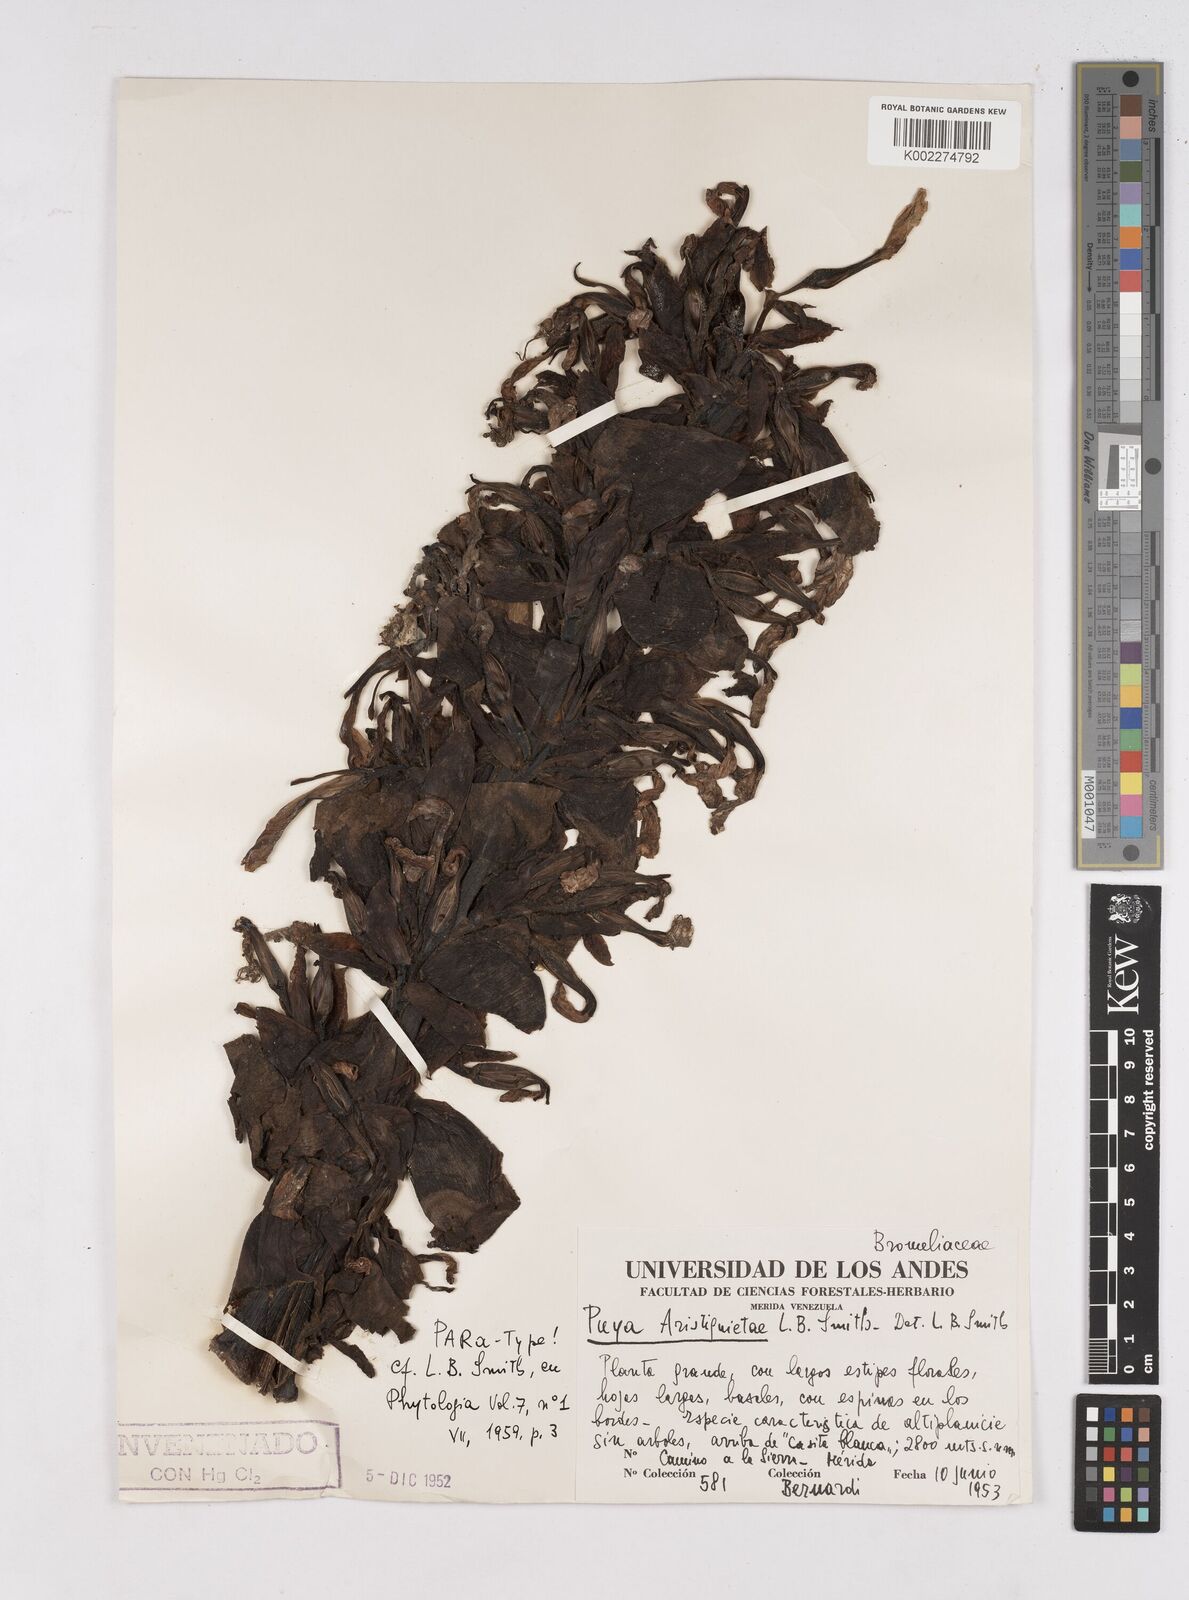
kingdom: Plantae
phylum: Tracheophyta
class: Liliopsida
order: Poales
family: Bromeliaceae
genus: Puya
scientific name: Puya aristeguietae
